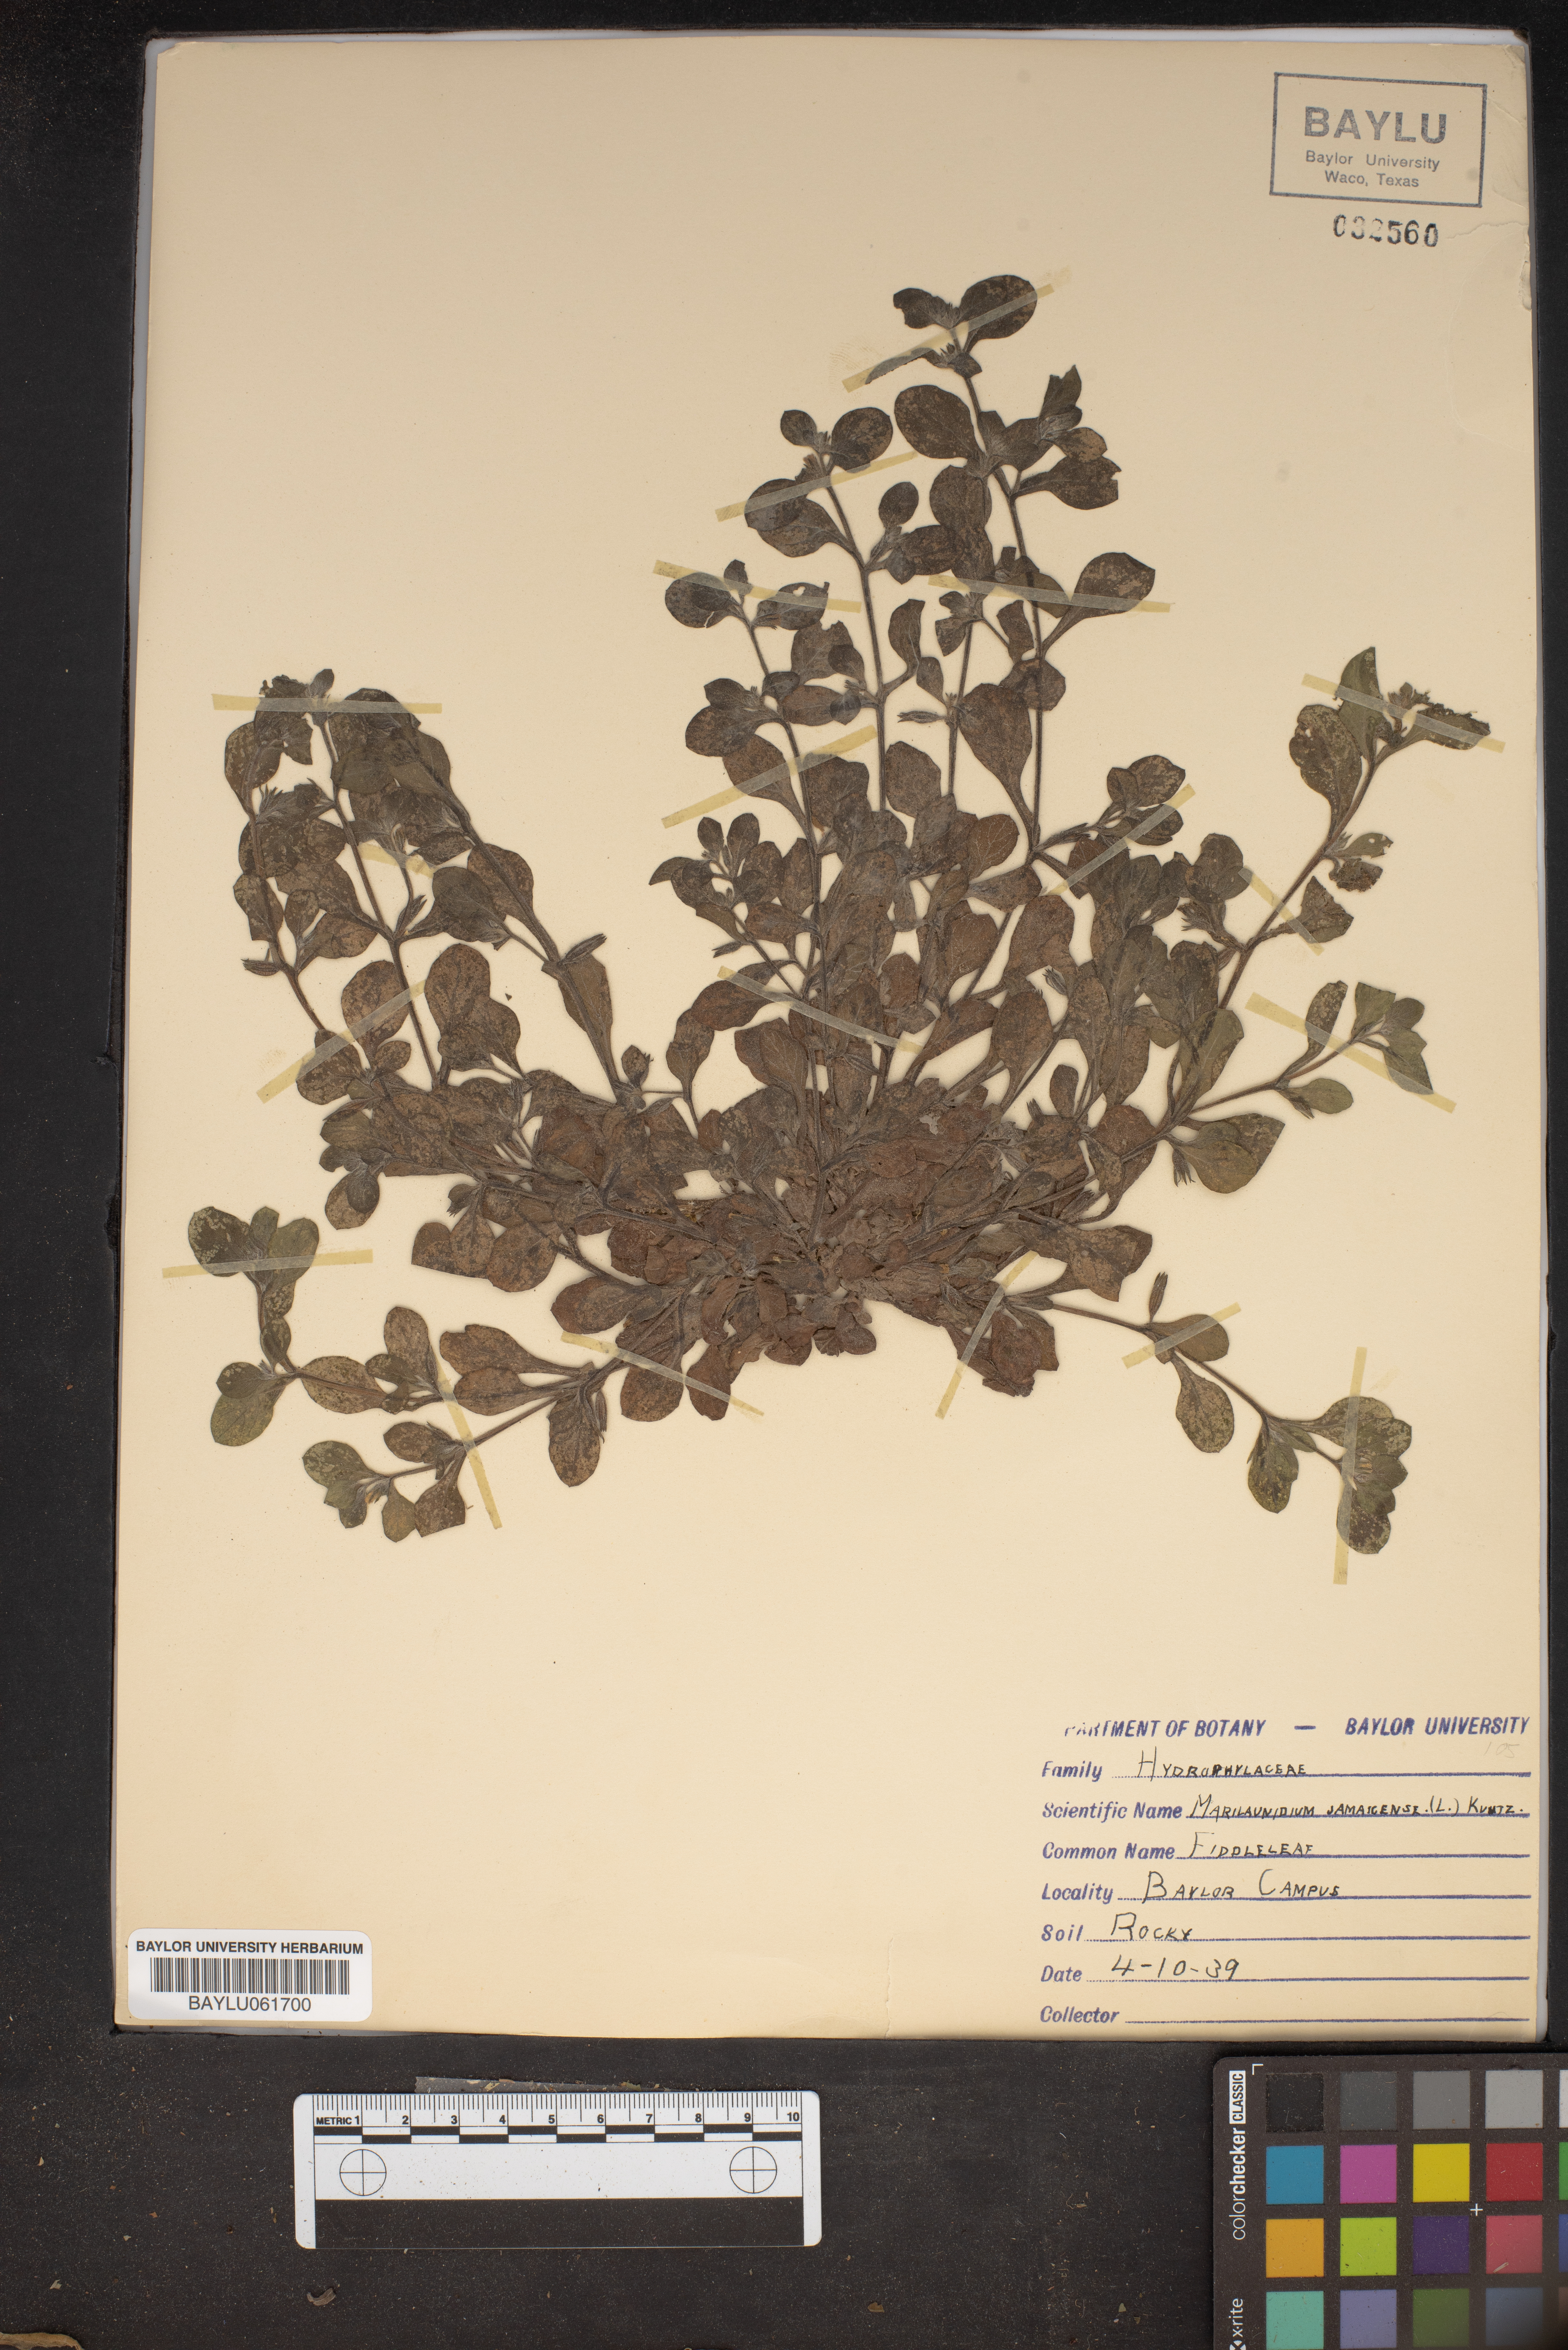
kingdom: Plantae
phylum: Tracheophyta
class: Magnoliopsida
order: Boraginales
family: Namaceae
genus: Nama
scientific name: Nama jamaicensis
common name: Jamaicanweed
